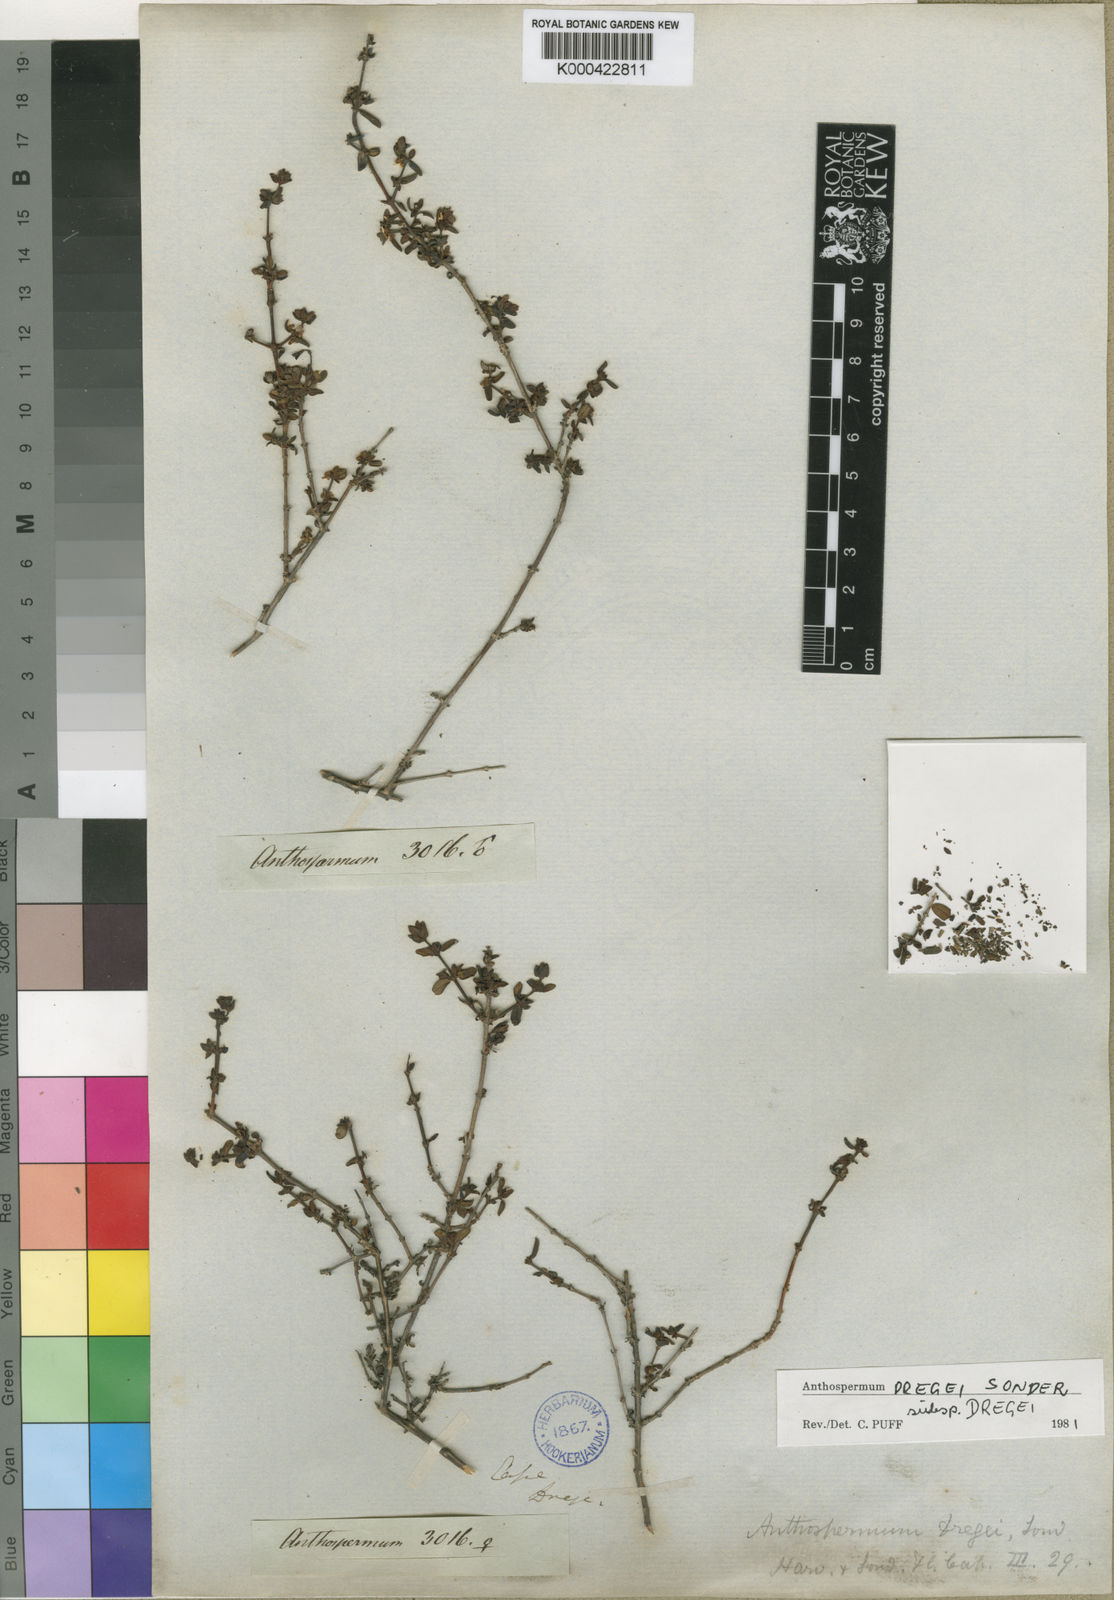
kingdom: Plantae
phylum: Tracheophyta
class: Magnoliopsida
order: Gentianales
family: Rubiaceae
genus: Anthospermum
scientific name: Anthospermum dregei
